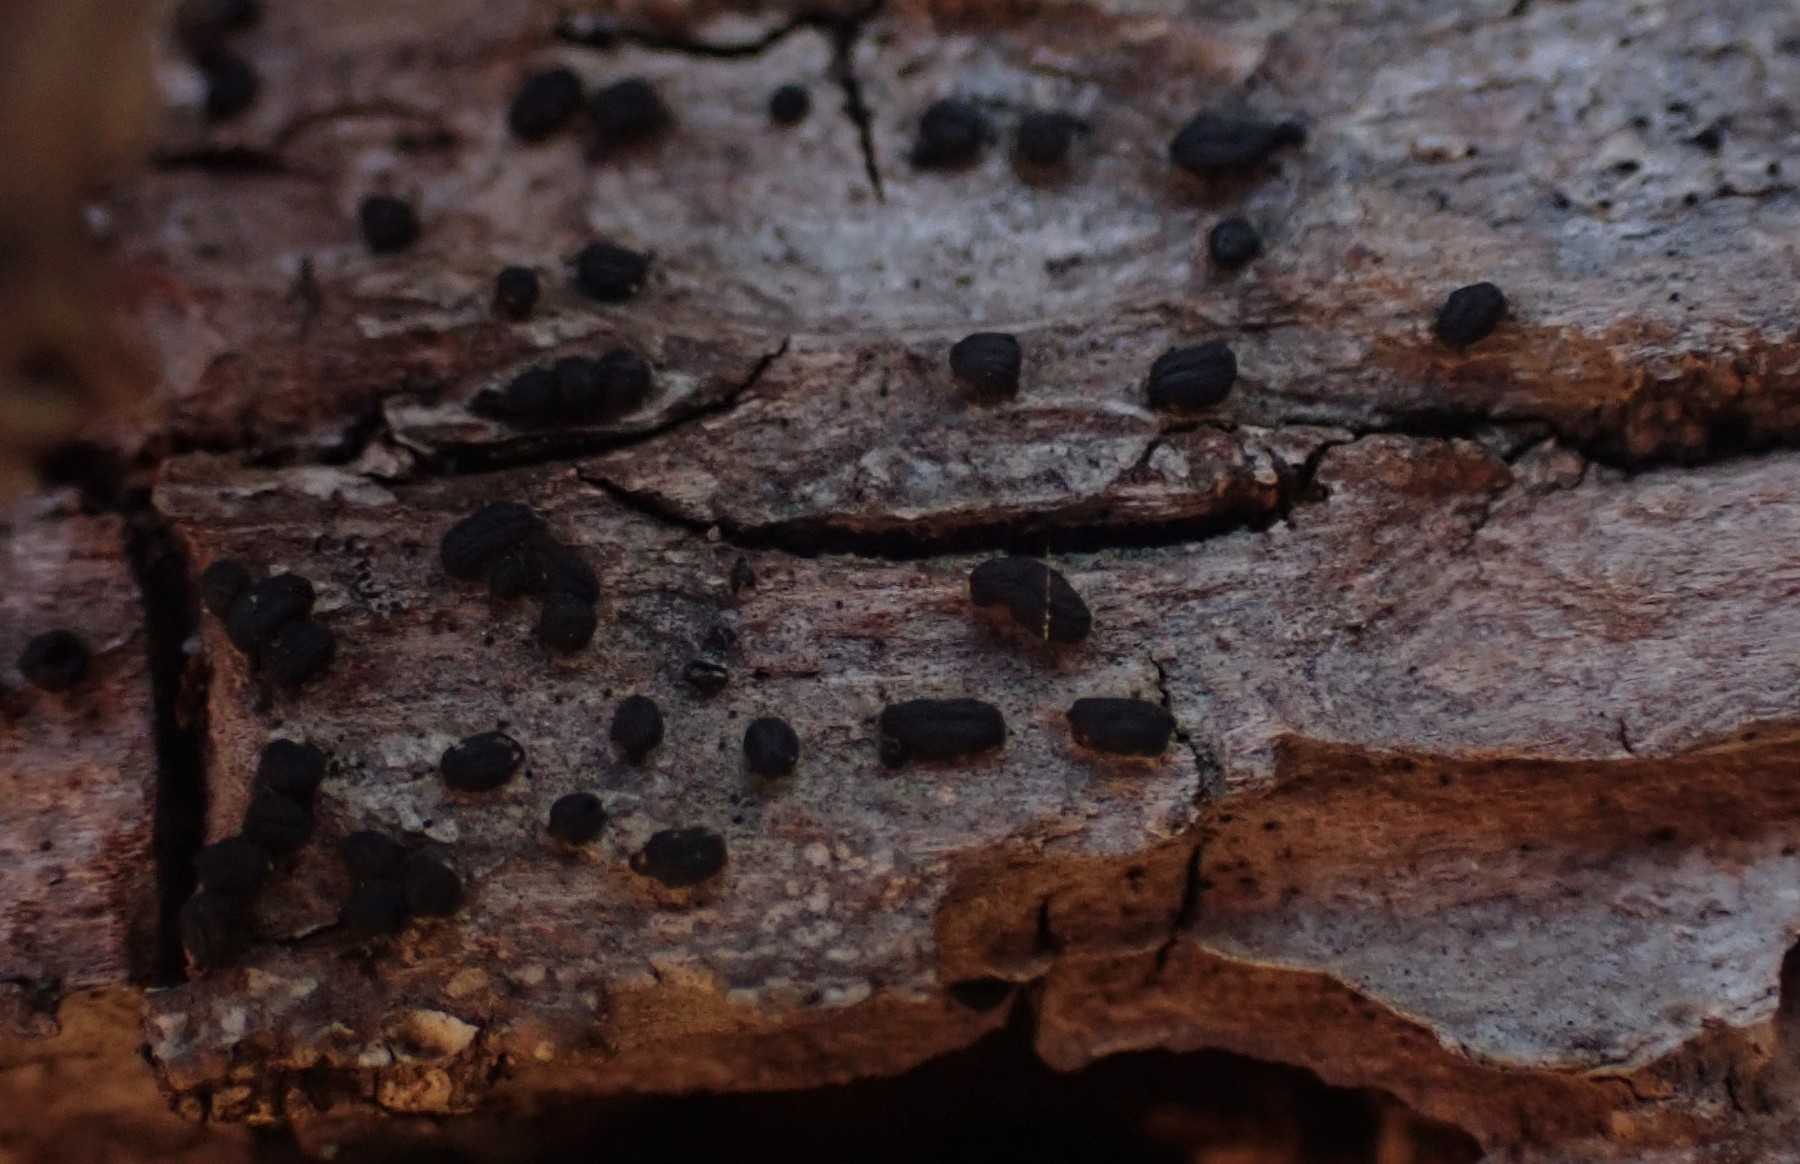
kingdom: Fungi
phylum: Ascomycota
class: Dothideomycetes
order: Hysteriales
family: Hysteriaceae
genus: Hysterium
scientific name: Hysterium pulicare
